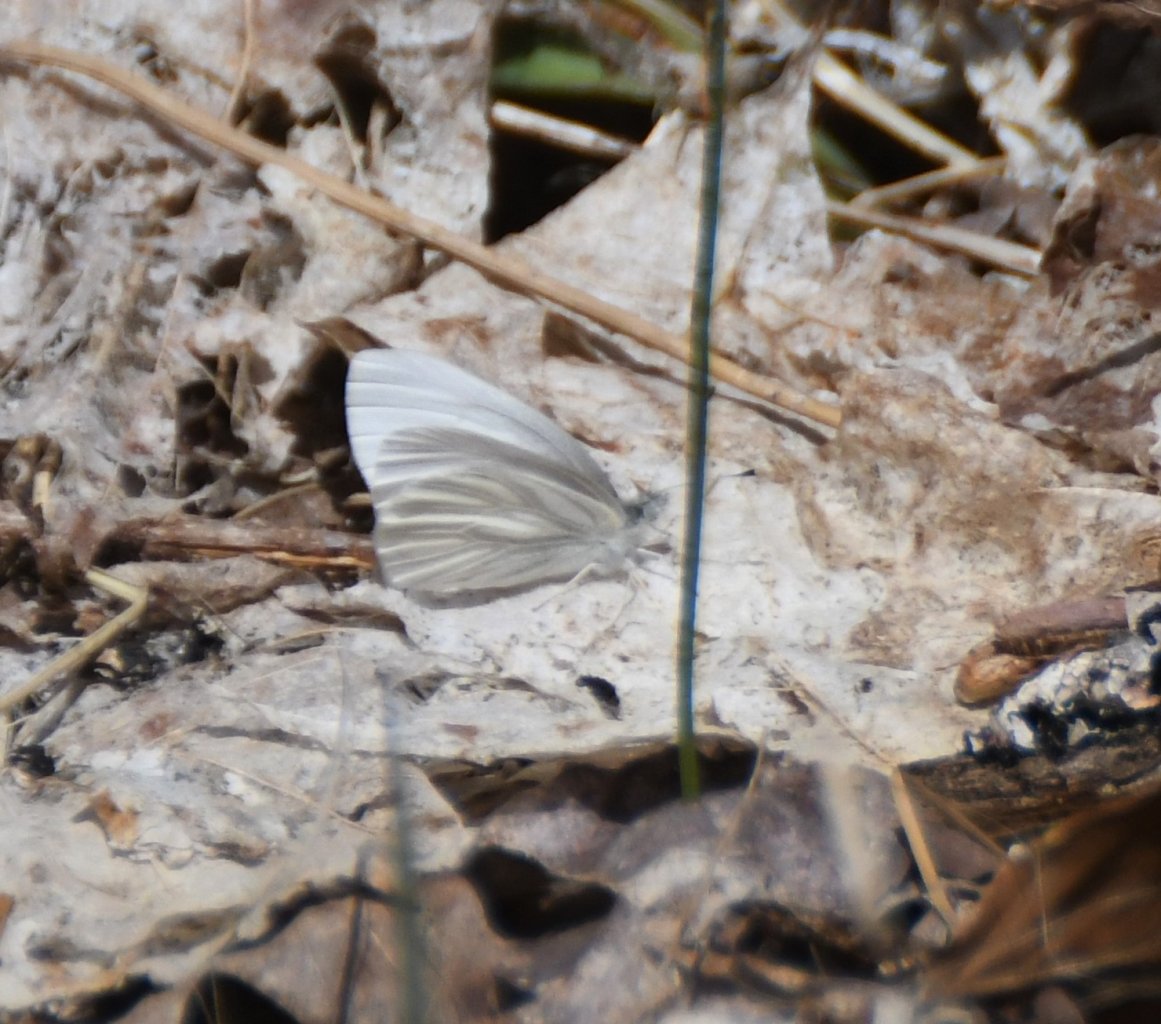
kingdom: Animalia
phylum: Arthropoda
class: Insecta
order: Lepidoptera
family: Pieridae
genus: Pieris
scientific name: Pieris virginiensis
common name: West Virginia White
